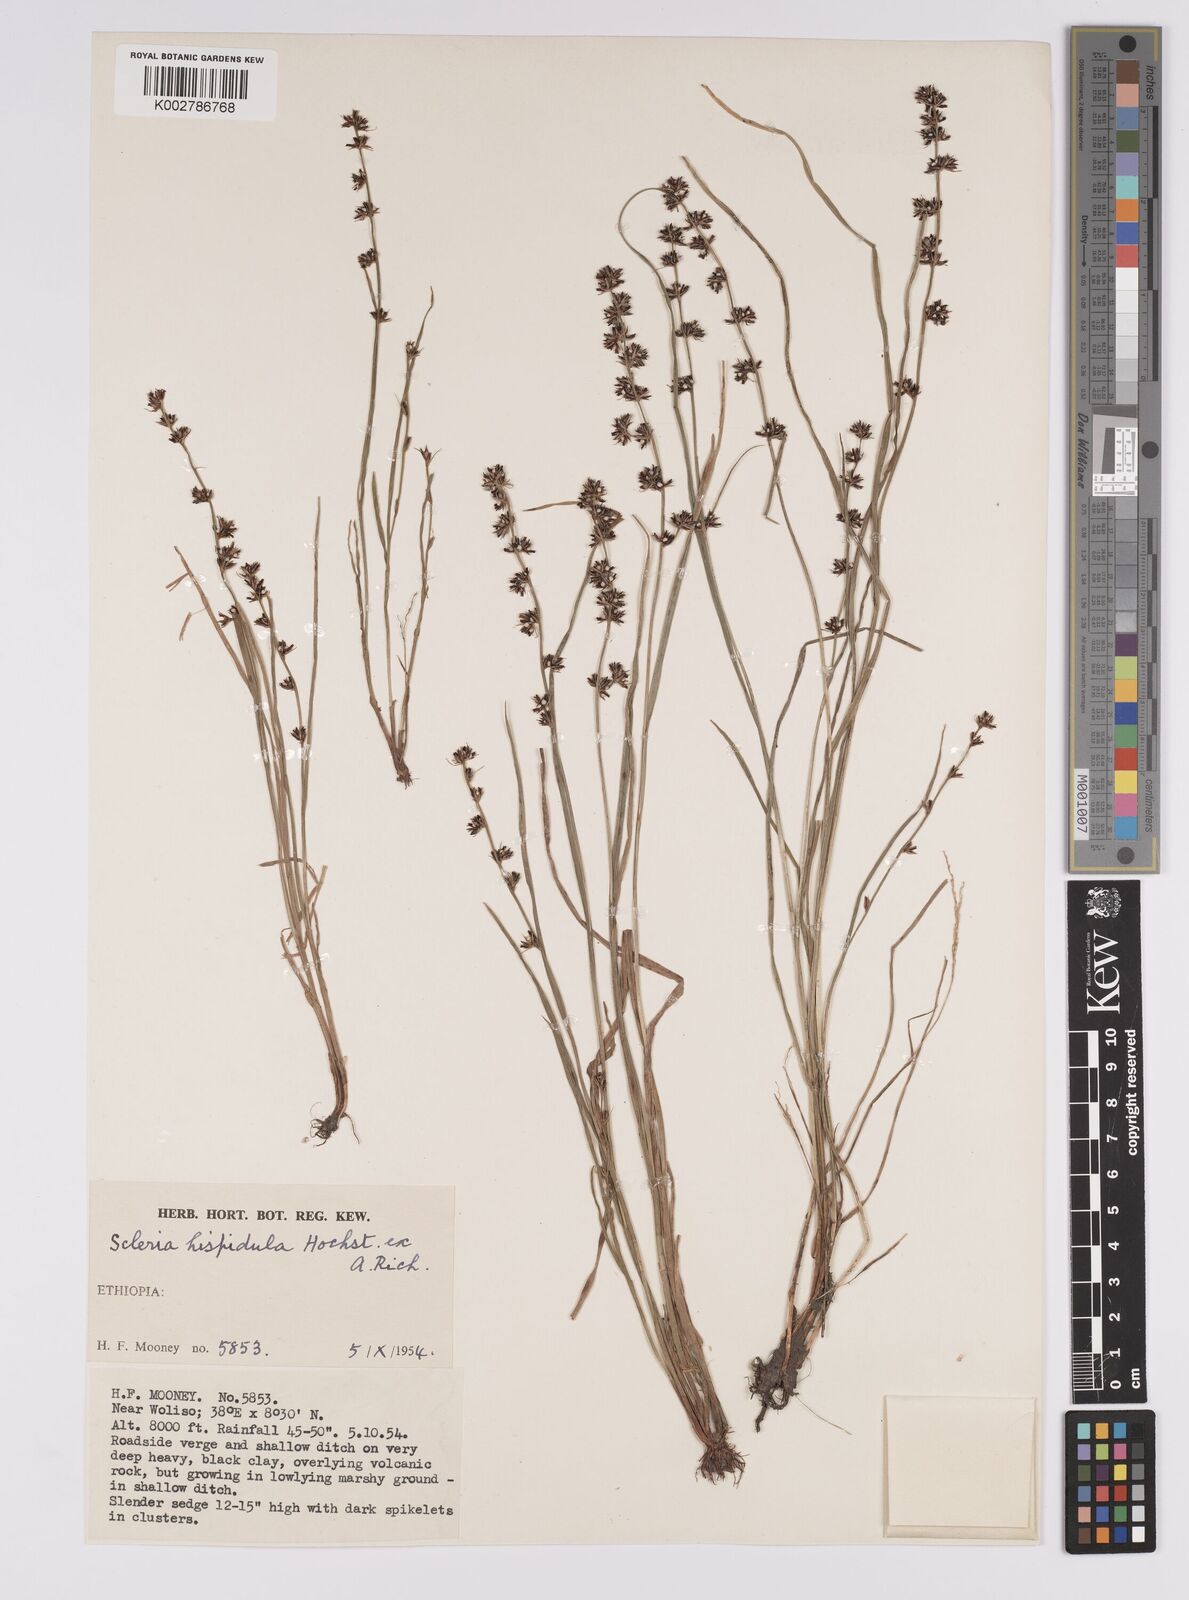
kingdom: Plantae
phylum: Tracheophyta
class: Liliopsida
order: Poales
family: Cyperaceae
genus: Scleria
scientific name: Scleria hispidula
